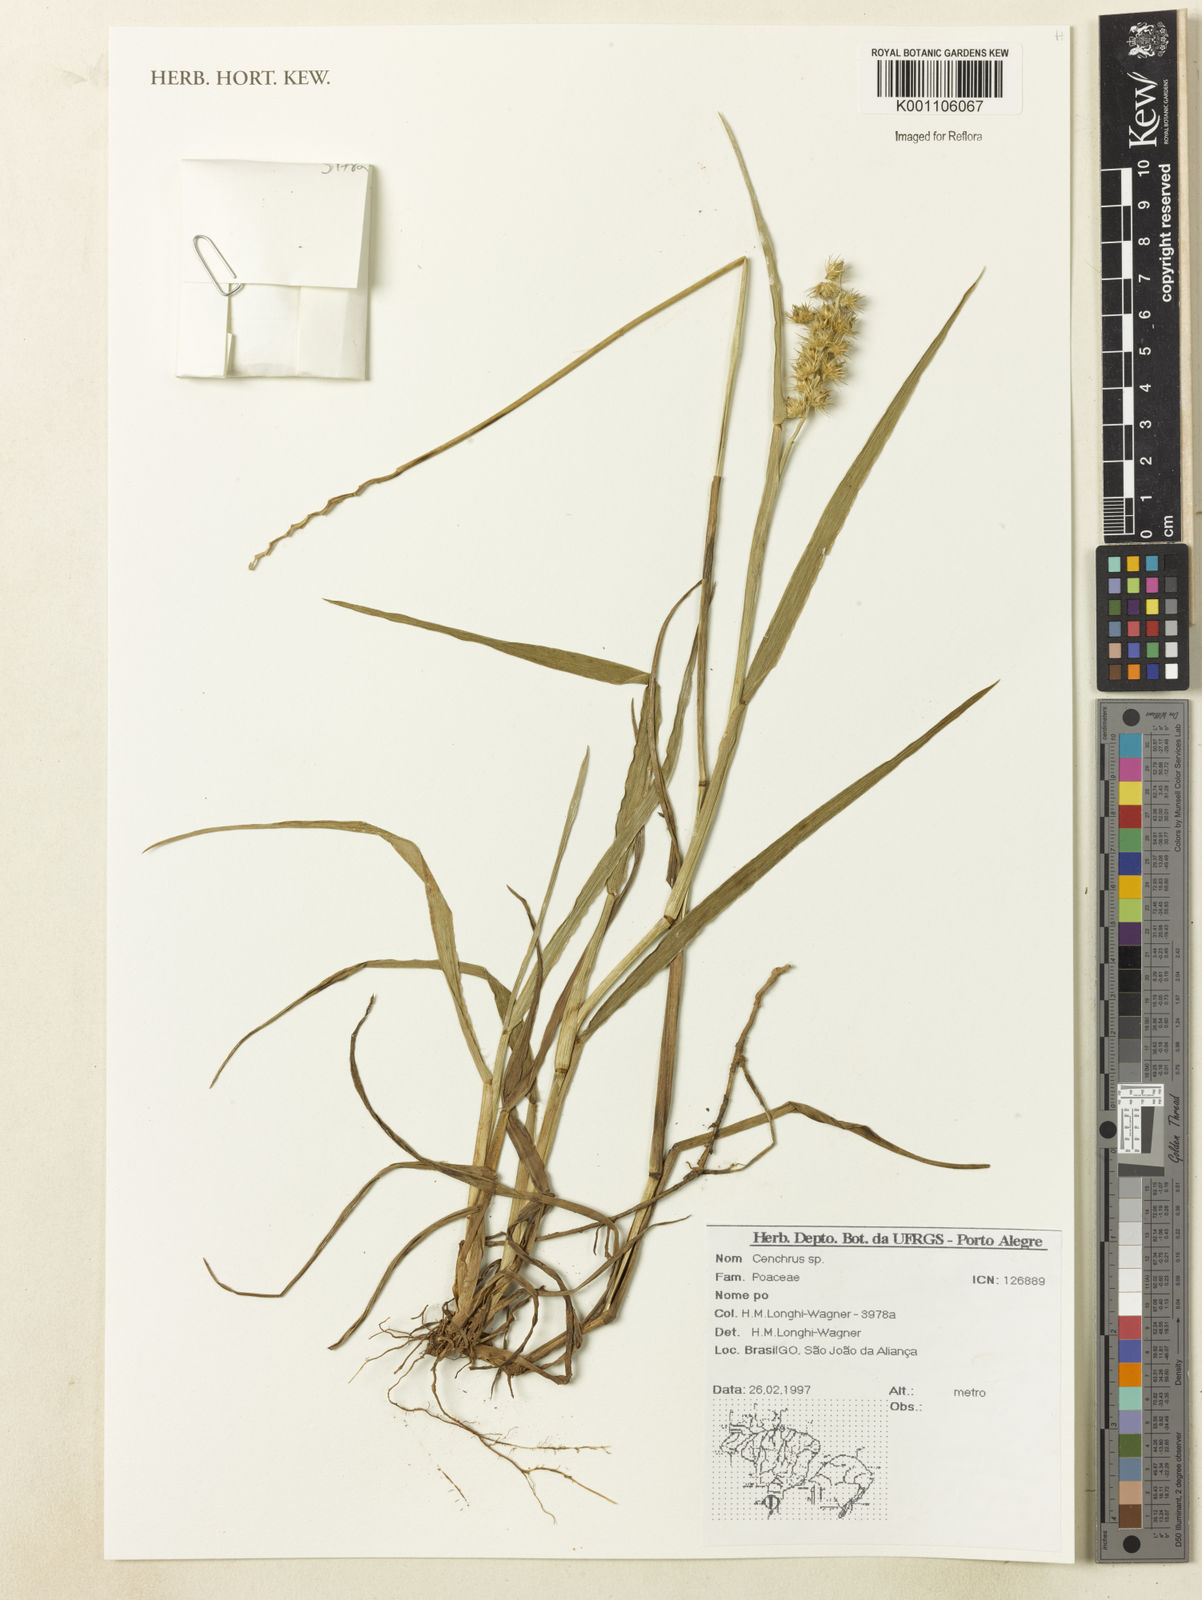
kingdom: Plantae
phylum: Tracheophyta
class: Liliopsida
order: Poales
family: Poaceae
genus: Cenchrus
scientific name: Cenchrus
